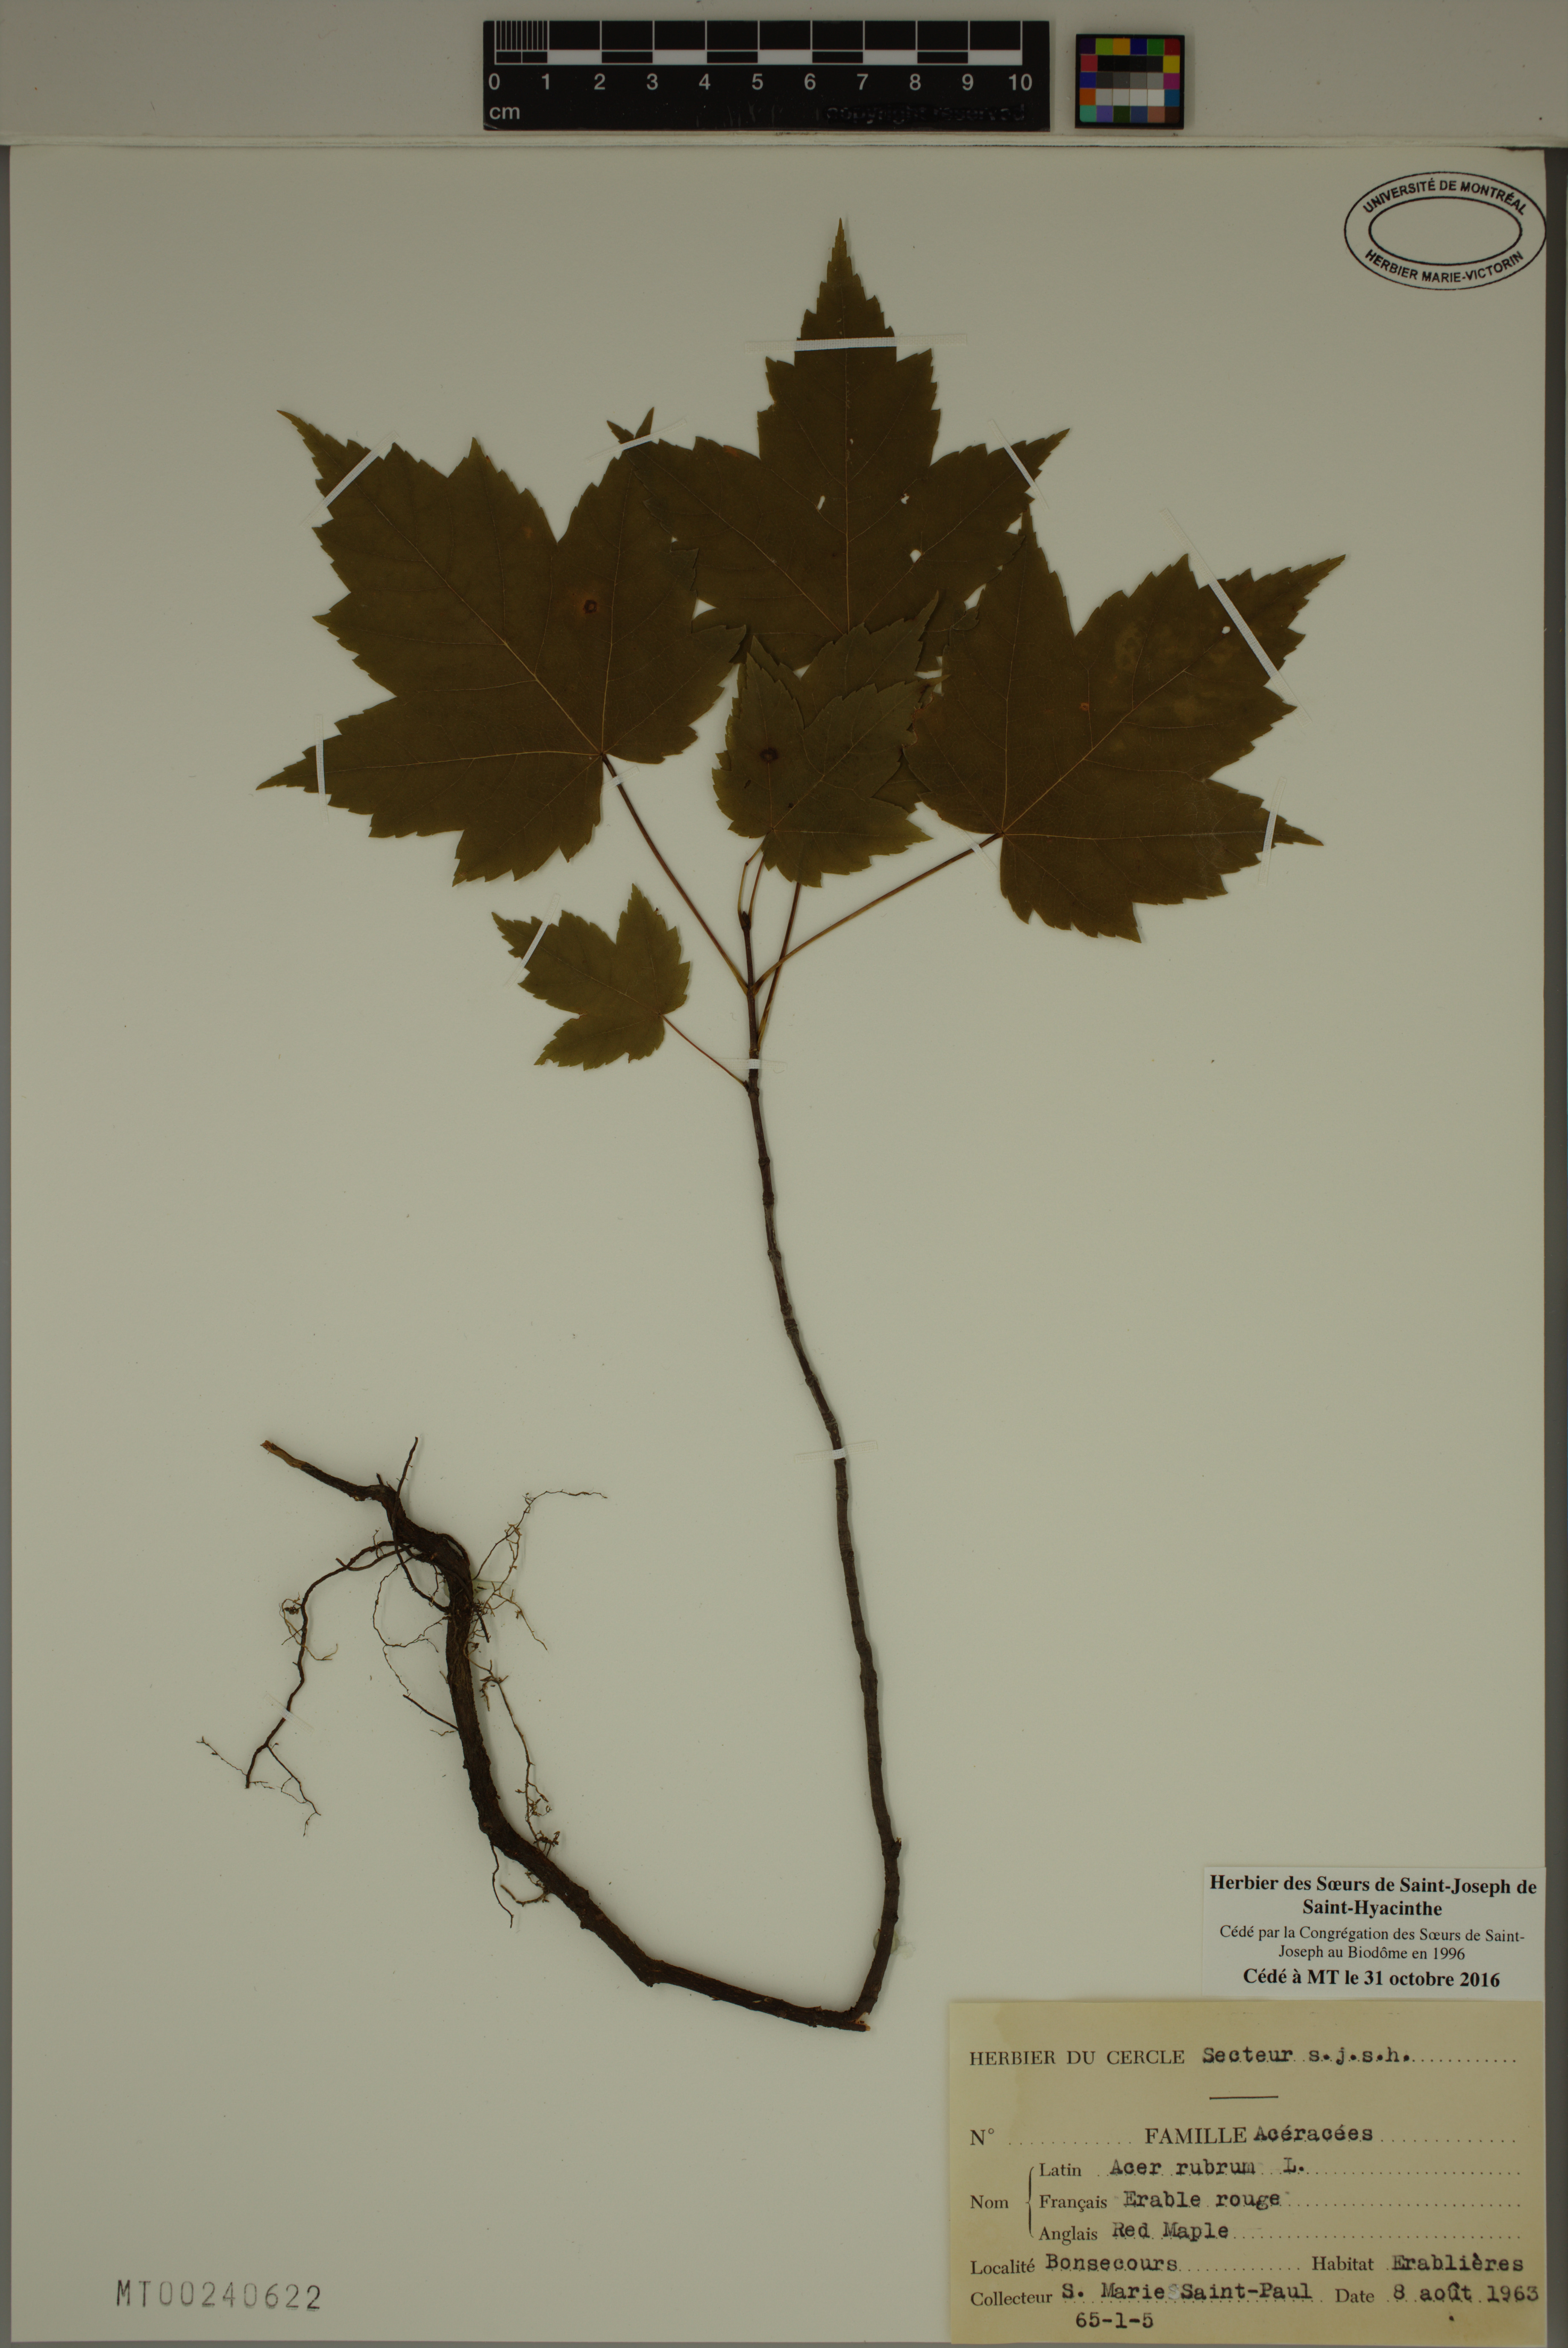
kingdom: Plantae
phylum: Tracheophyta
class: Magnoliopsida
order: Sapindales
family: Sapindaceae
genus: Acer
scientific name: Acer rubrum
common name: Red maple
